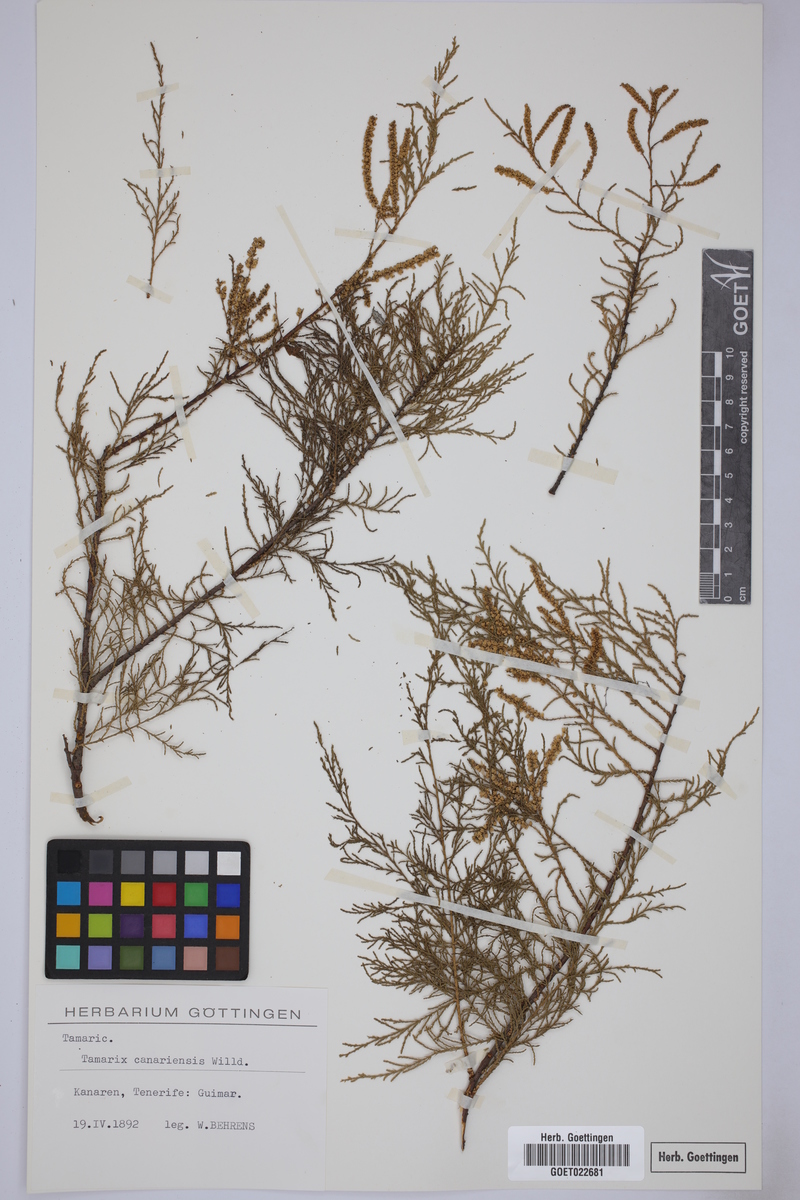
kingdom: Plantae
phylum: Tracheophyta
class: Magnoliopsida
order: Caryophyllales
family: Tamaricaceae
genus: Tamarix
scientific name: Tamarix canariensis
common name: Canary island tamarisk
